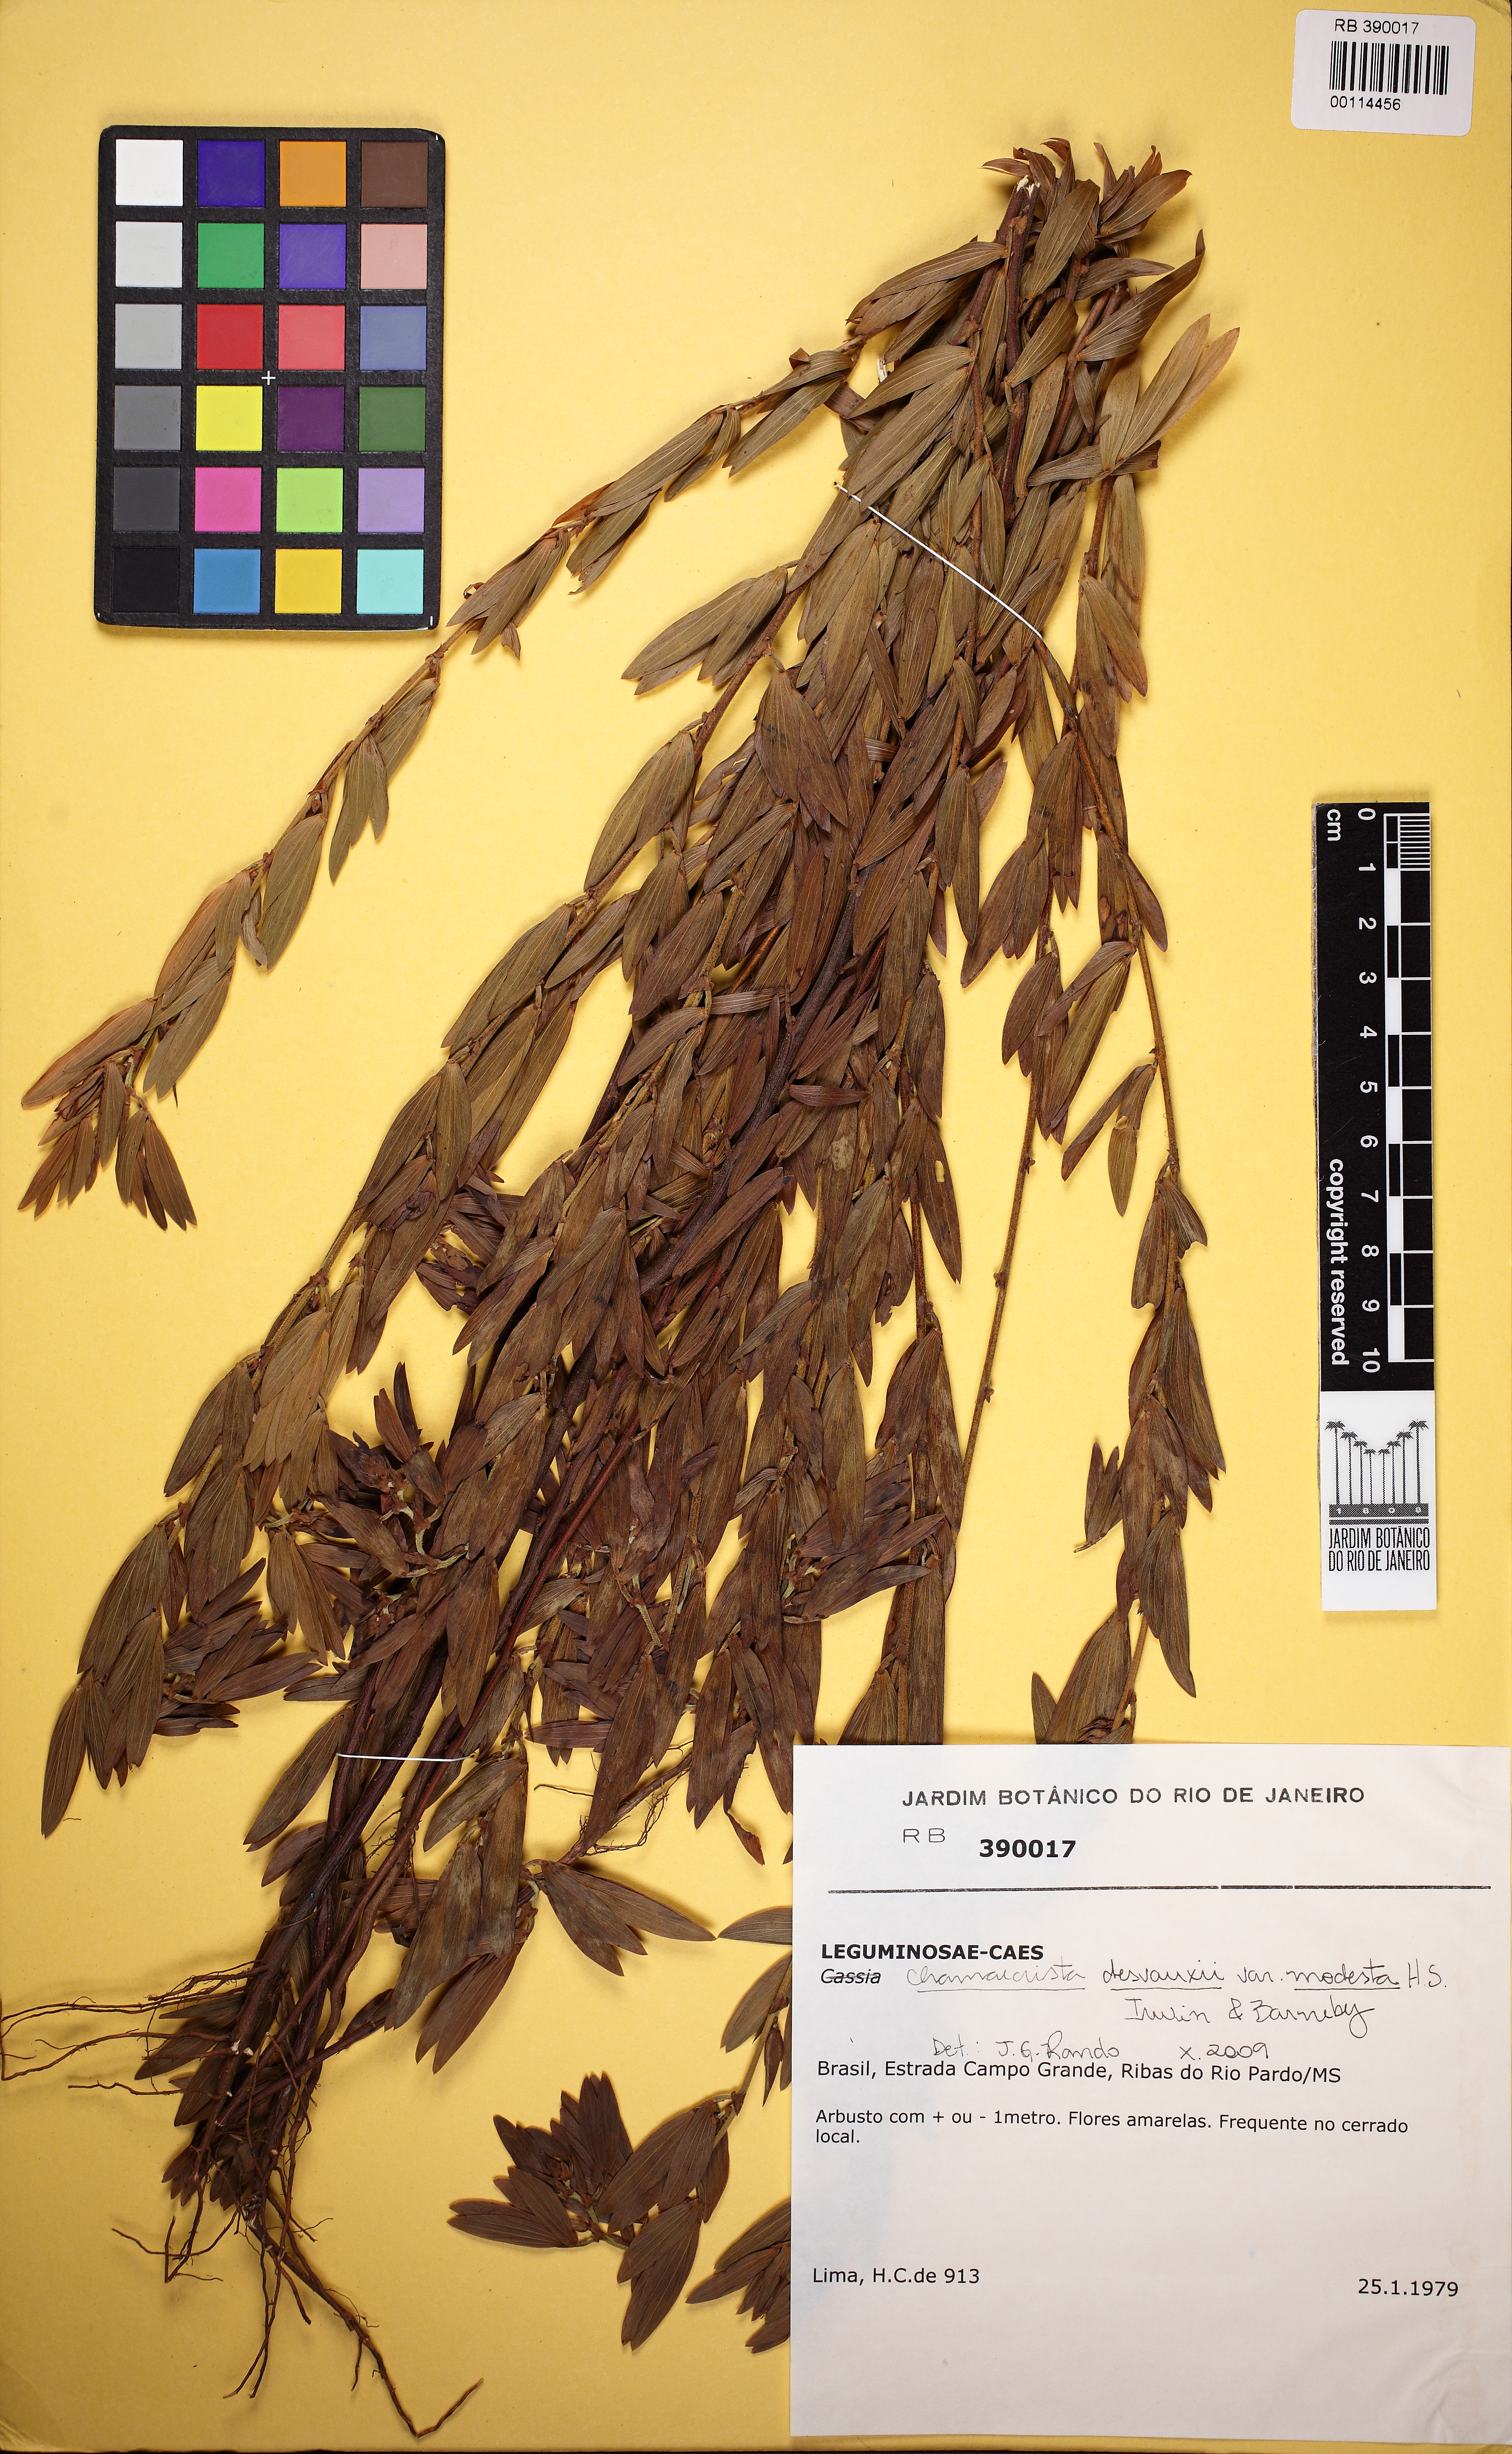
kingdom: Plantae
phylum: Tracheophyta
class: Magnoliopsida
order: Fabales
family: Fabaceae
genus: Chamaecrista
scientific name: Chamaecrista desvauxii
